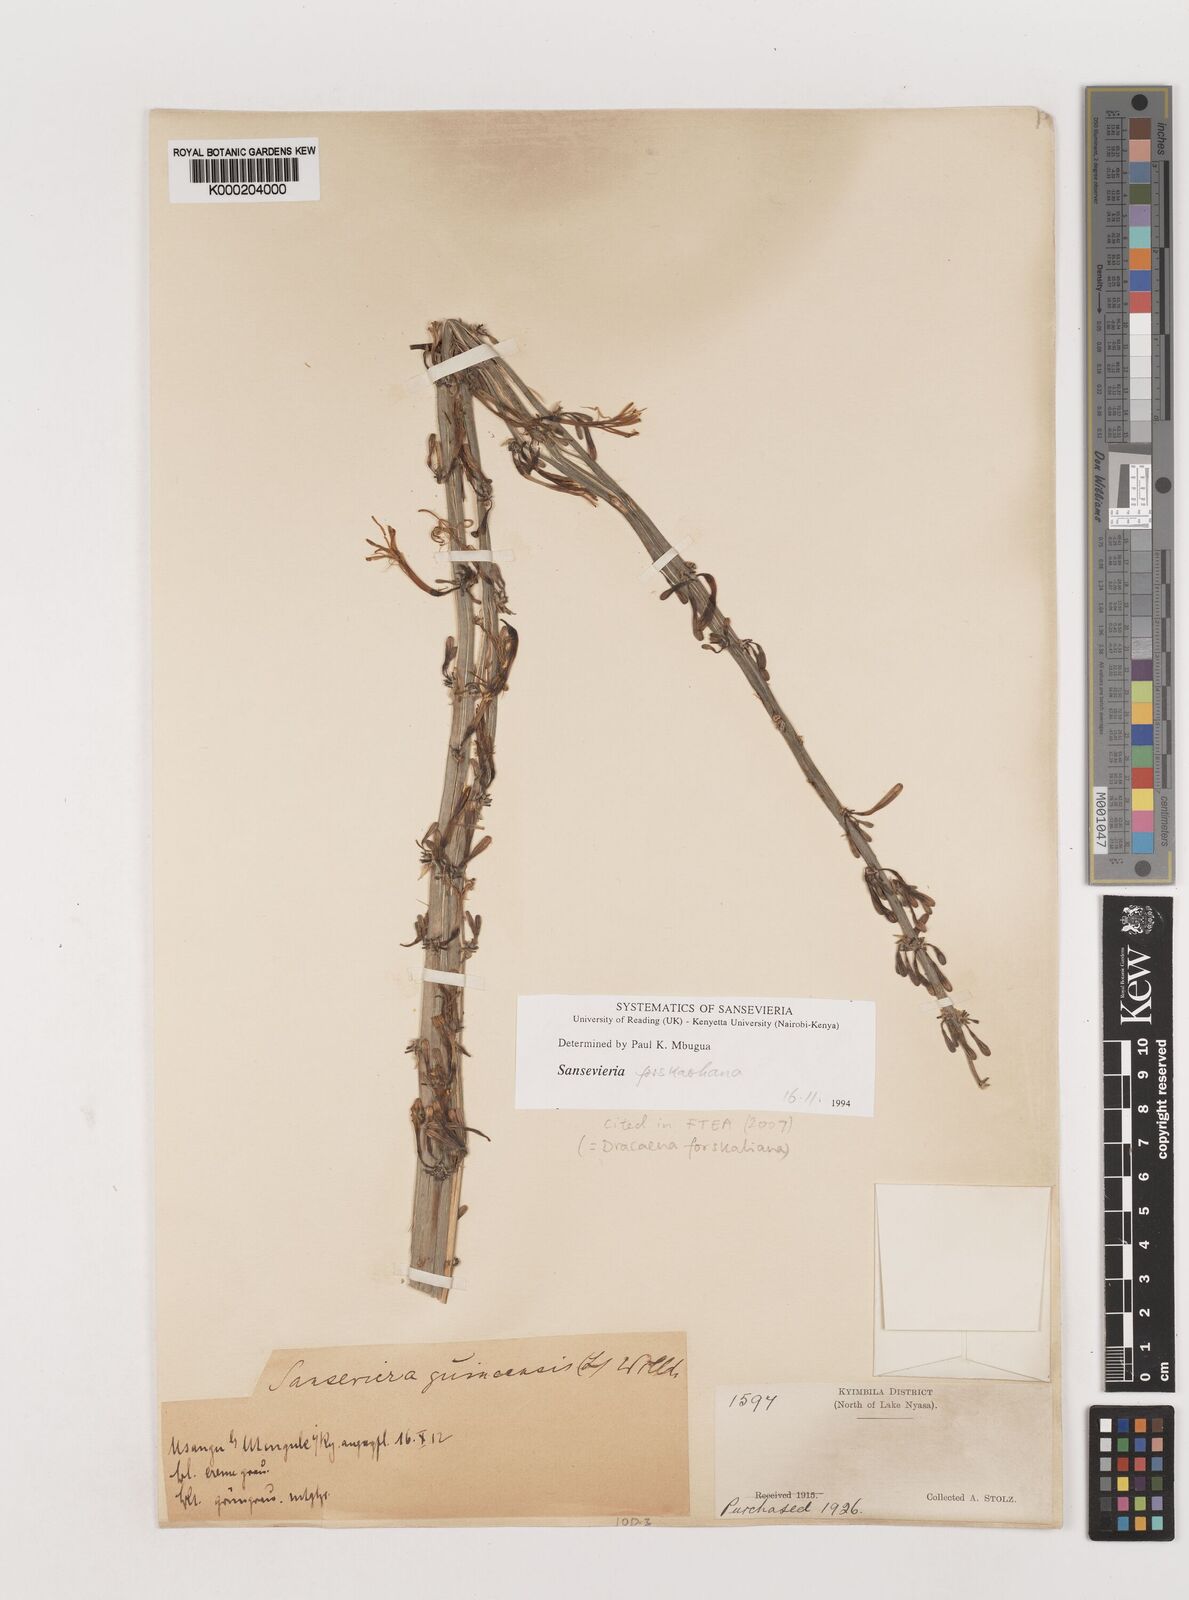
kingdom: Plantae
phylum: Tracheophyta
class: Liliopsida
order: Asparagales
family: Asparagaceae
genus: Dracaena
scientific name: Dracaena forskaliana
